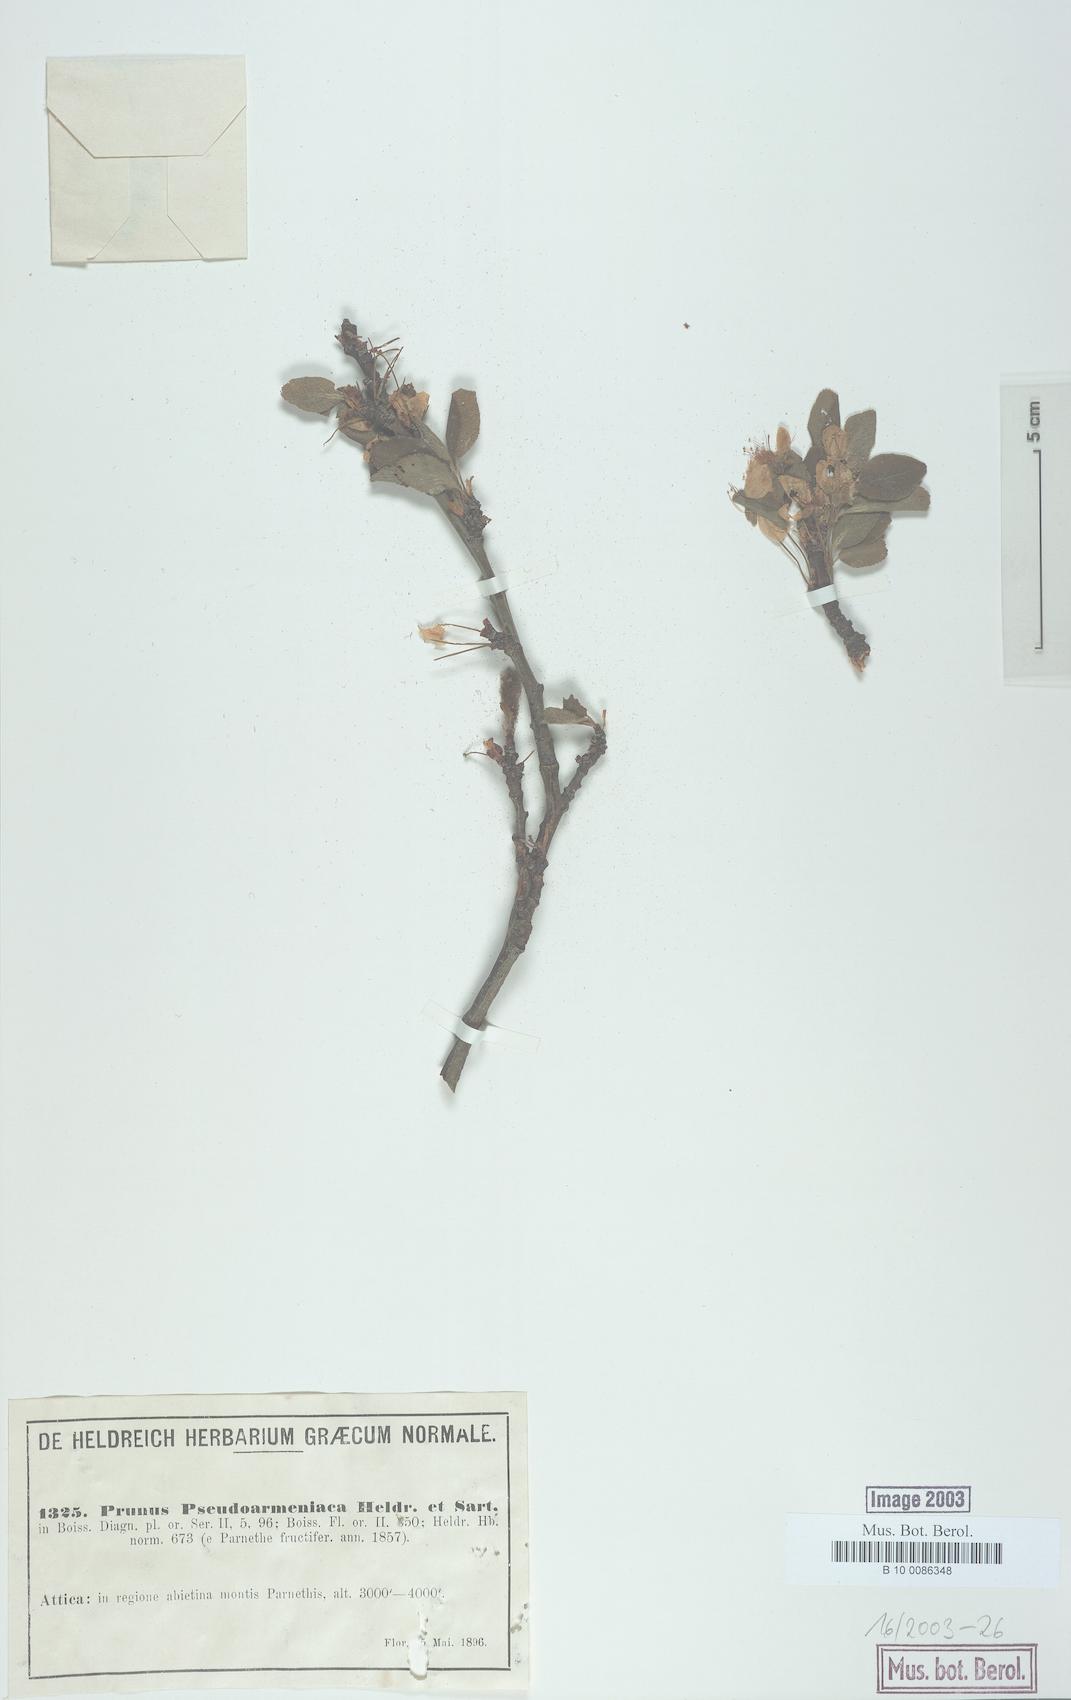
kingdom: Plantae
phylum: Tracheophyta
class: Magnoliopsida
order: Rosales
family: Rosaceae
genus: Prunus
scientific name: Prunus cocomilia
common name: Italian plum
